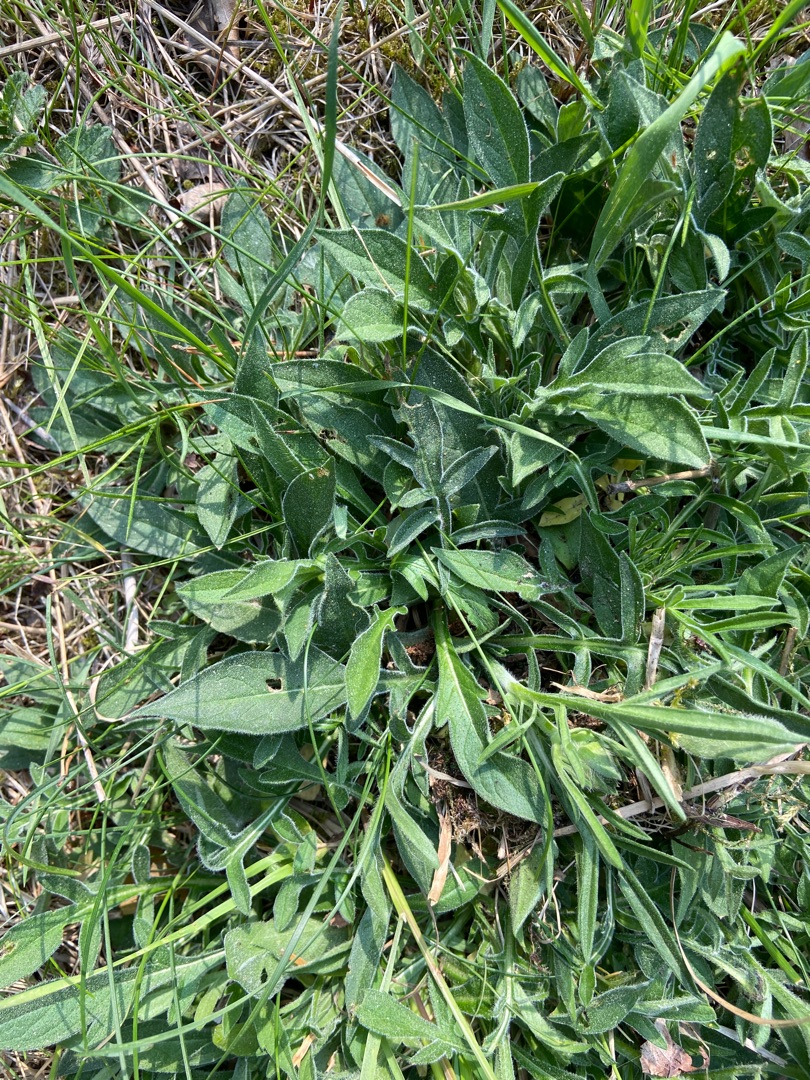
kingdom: Plantae
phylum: Tracheophyta
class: Magnoliopsida
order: Dipsacales
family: Caprifoliaceae
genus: Knautia
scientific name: Knautia arvensis
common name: Blåhat
